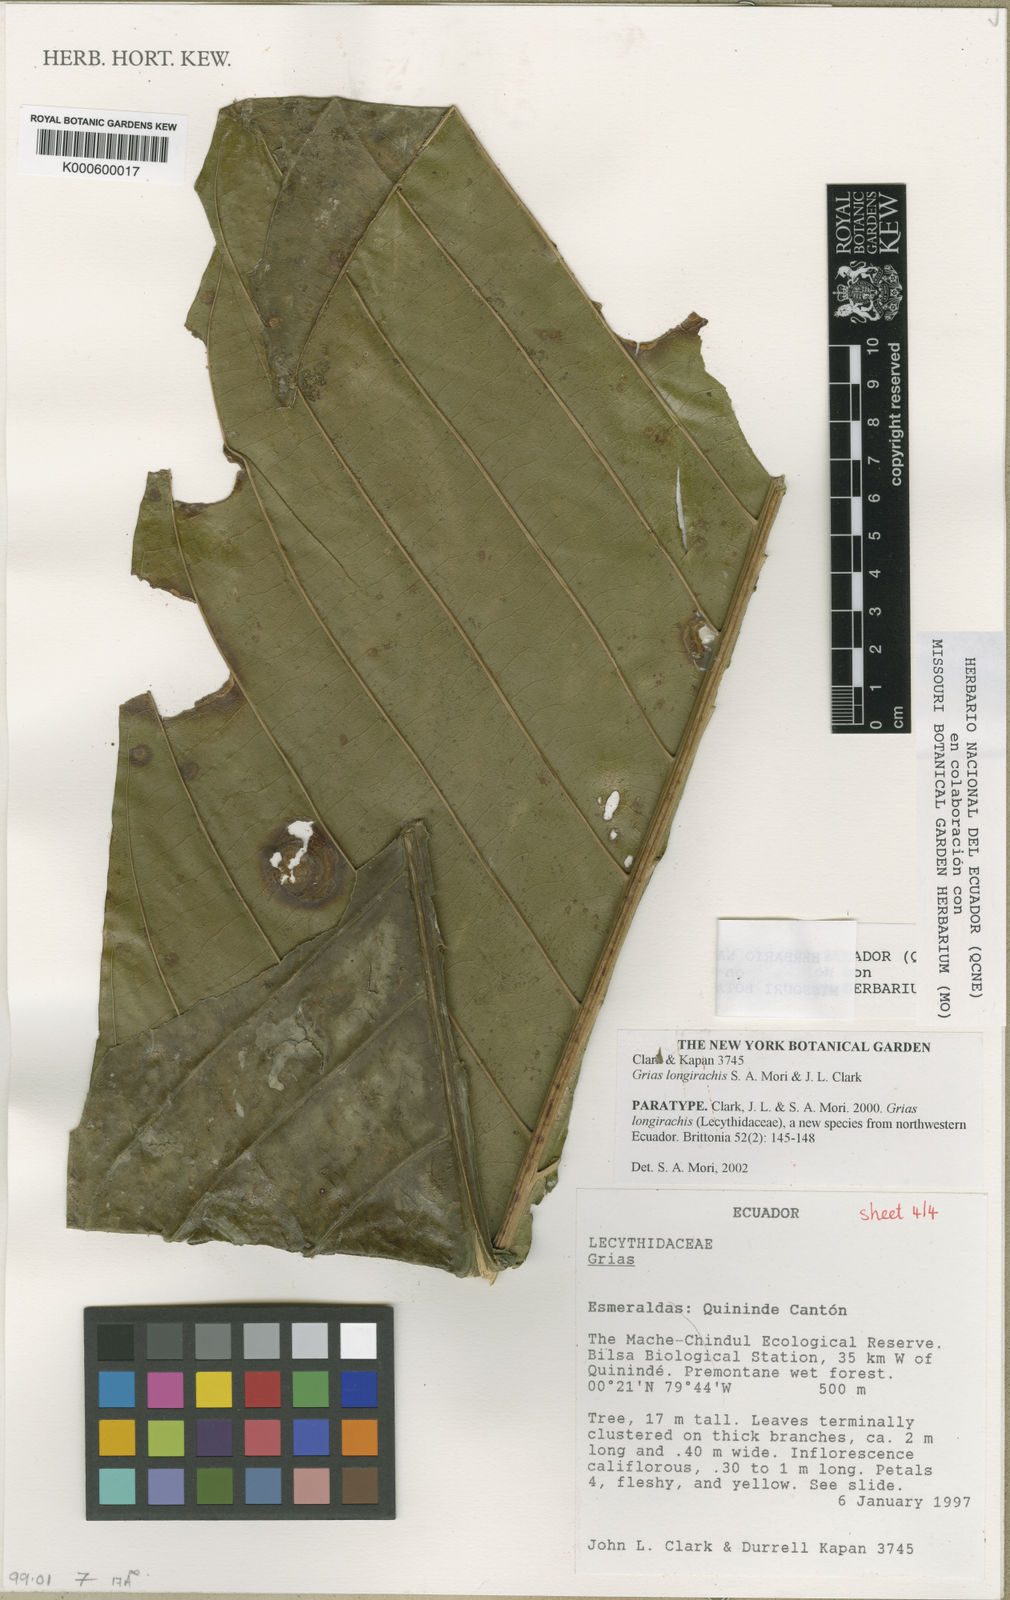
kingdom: Plantae
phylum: Tracheophyta
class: Magnoliopsida
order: Ericales
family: Lecythidaceae
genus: Grias
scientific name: Grias longirachis
